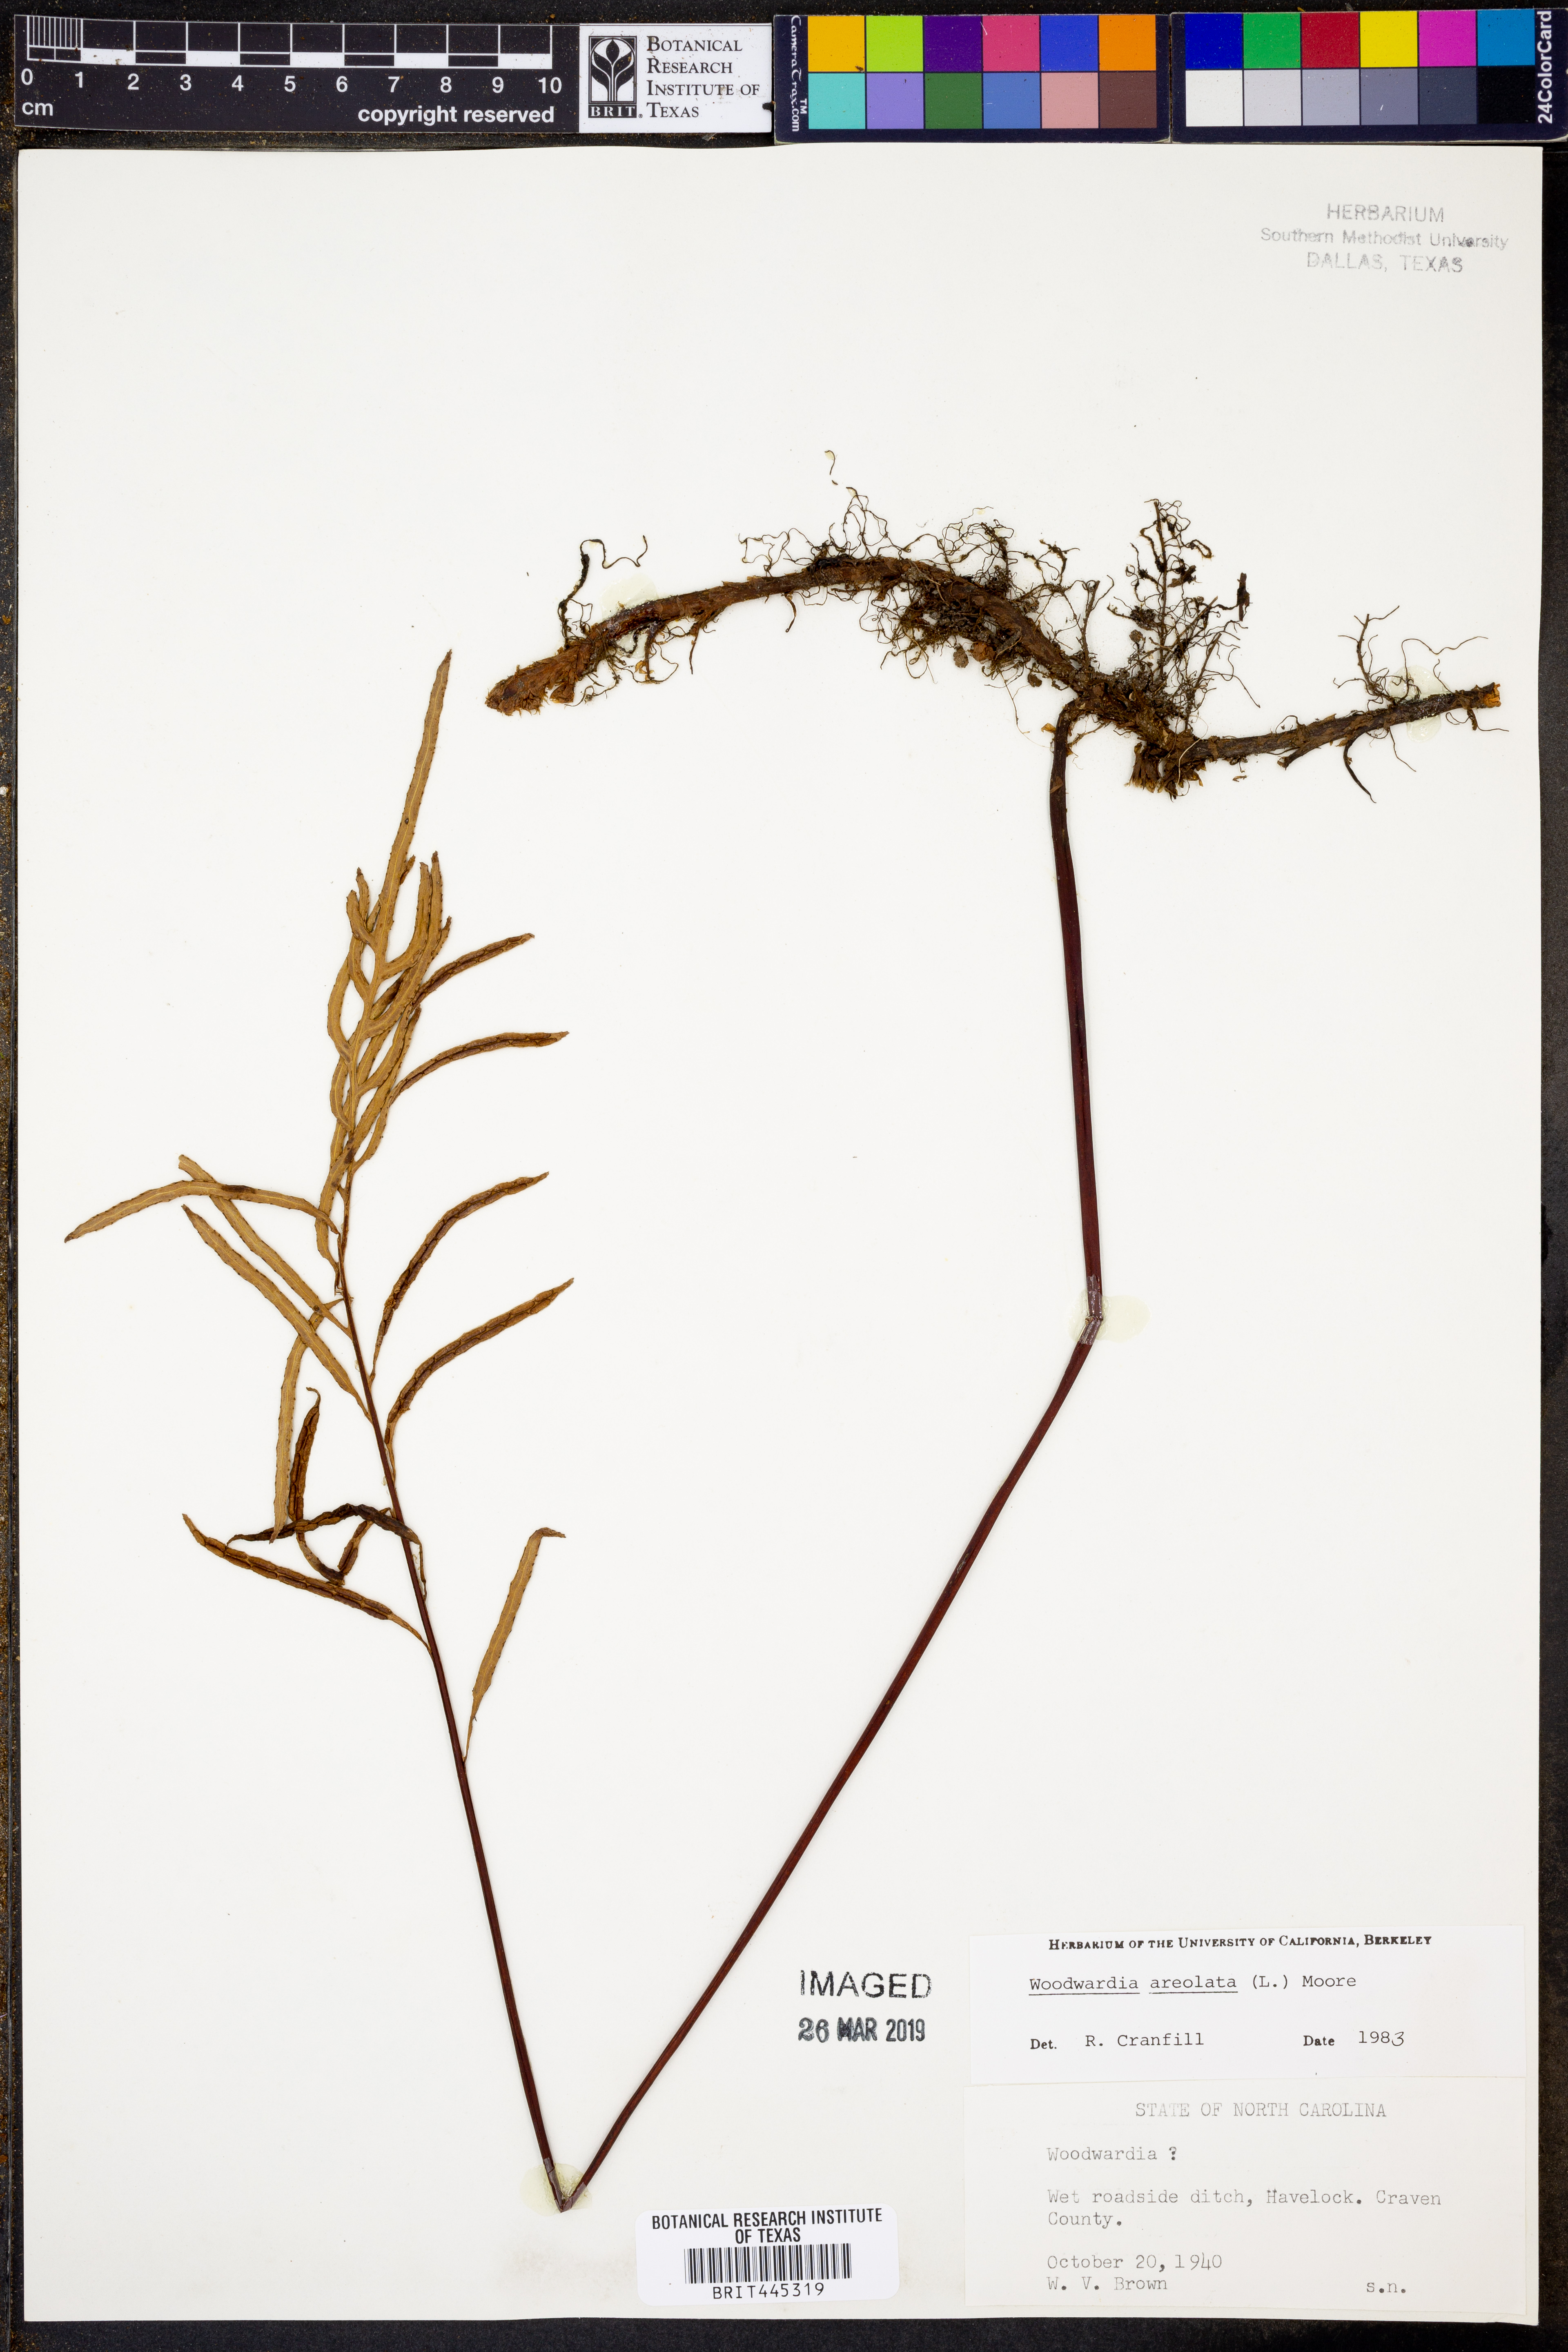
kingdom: Plantae
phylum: Tracheophyta
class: Polypodiopsida
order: Polypodiales
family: Blechnaceae
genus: Lorinseria
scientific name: Lorinseria areolata
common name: Dwarf chain fern
